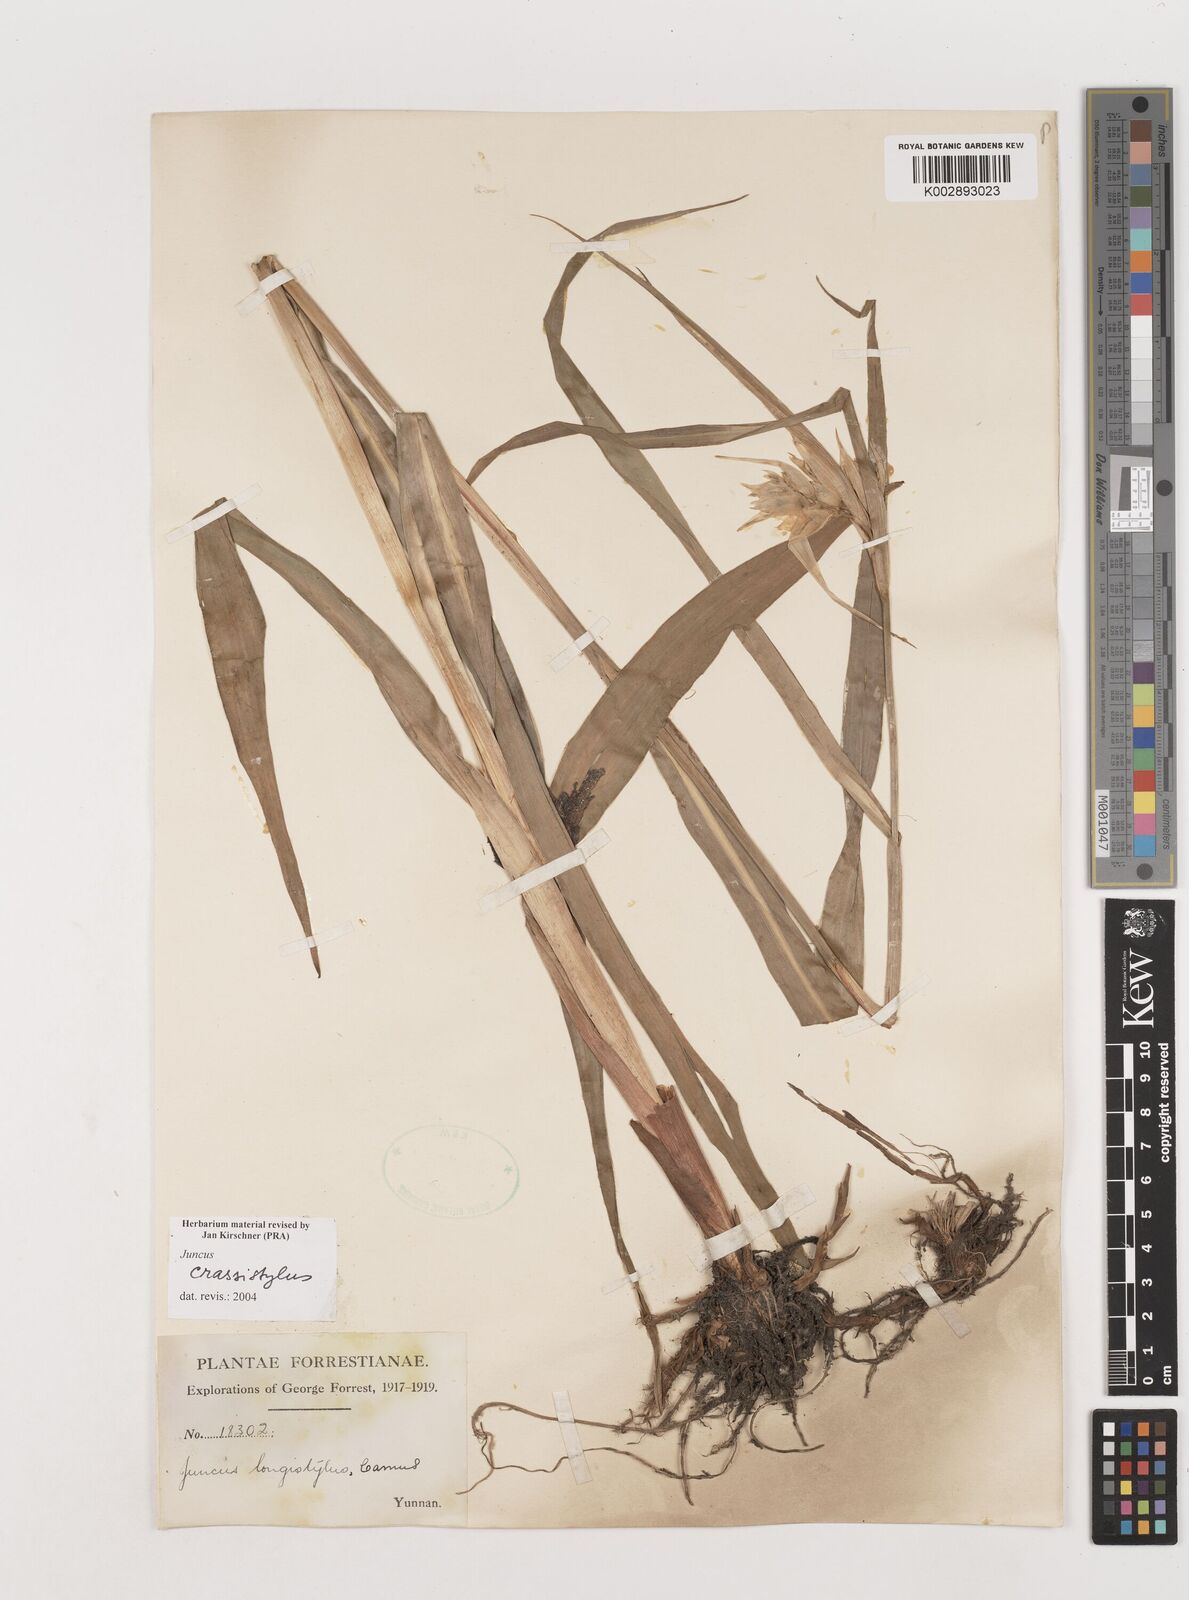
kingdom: Plantae
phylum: Tracheophyta
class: Liliopsida
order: Poales
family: Juncaceae
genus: Juncus
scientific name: Juncus crassistylus
